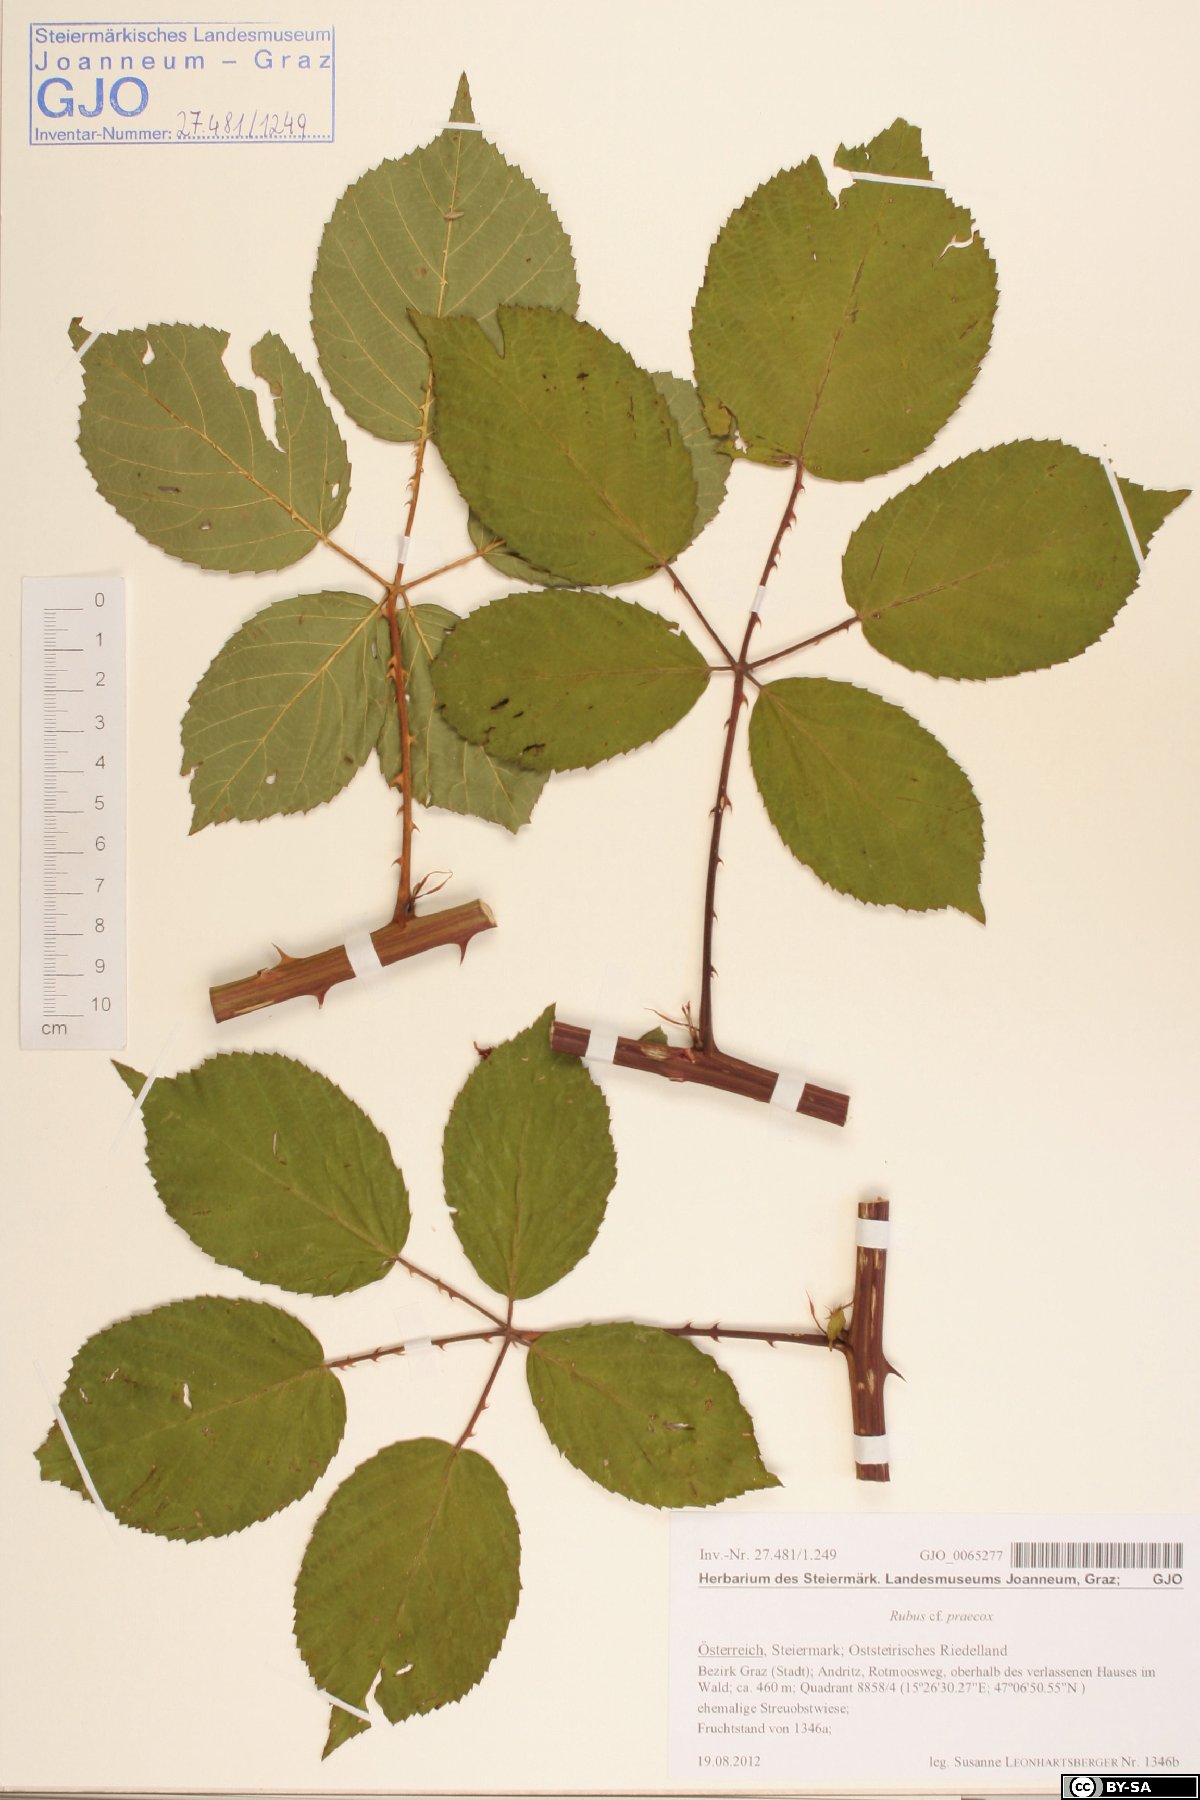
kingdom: Plantae
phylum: Tracheophyta
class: Magnoliopsida
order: Rosales
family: Rosaceae
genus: Rubus
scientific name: Rubus sulcatus
